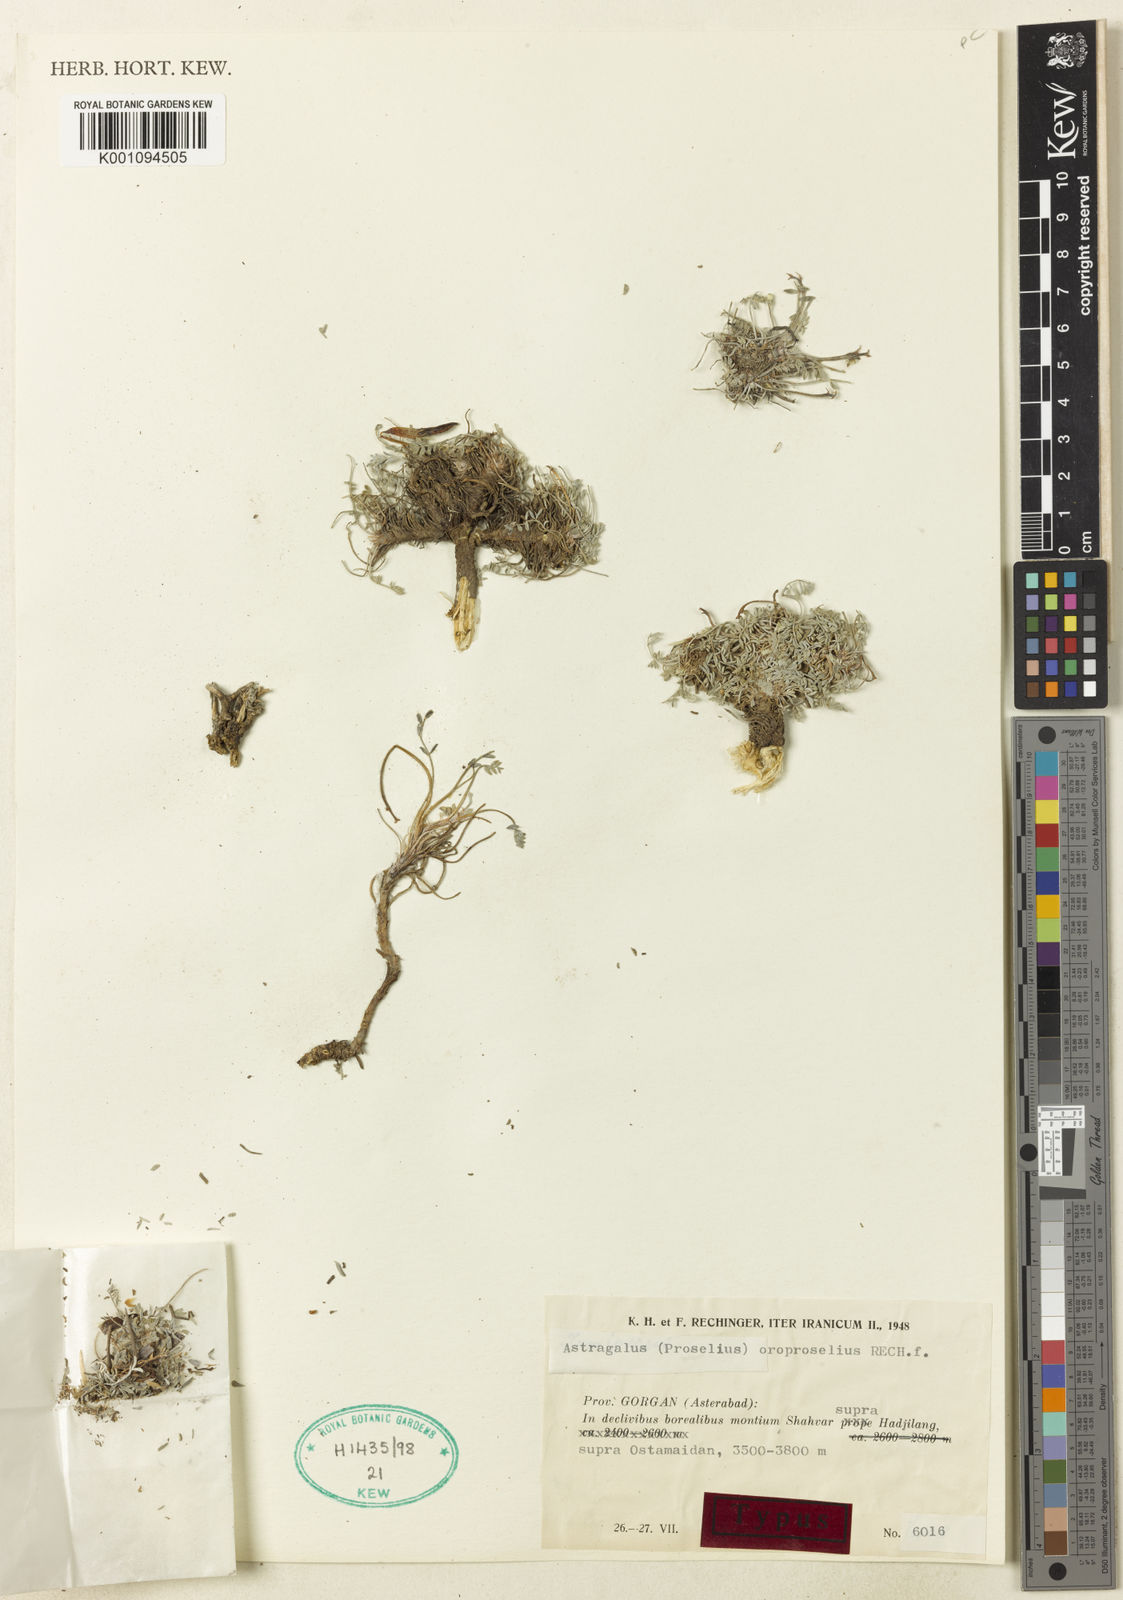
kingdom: Plantae
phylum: Tracheophyta
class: Magnoliopsida
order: Fabales
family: Fabaceae
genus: Astragalus
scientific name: Astragalus
